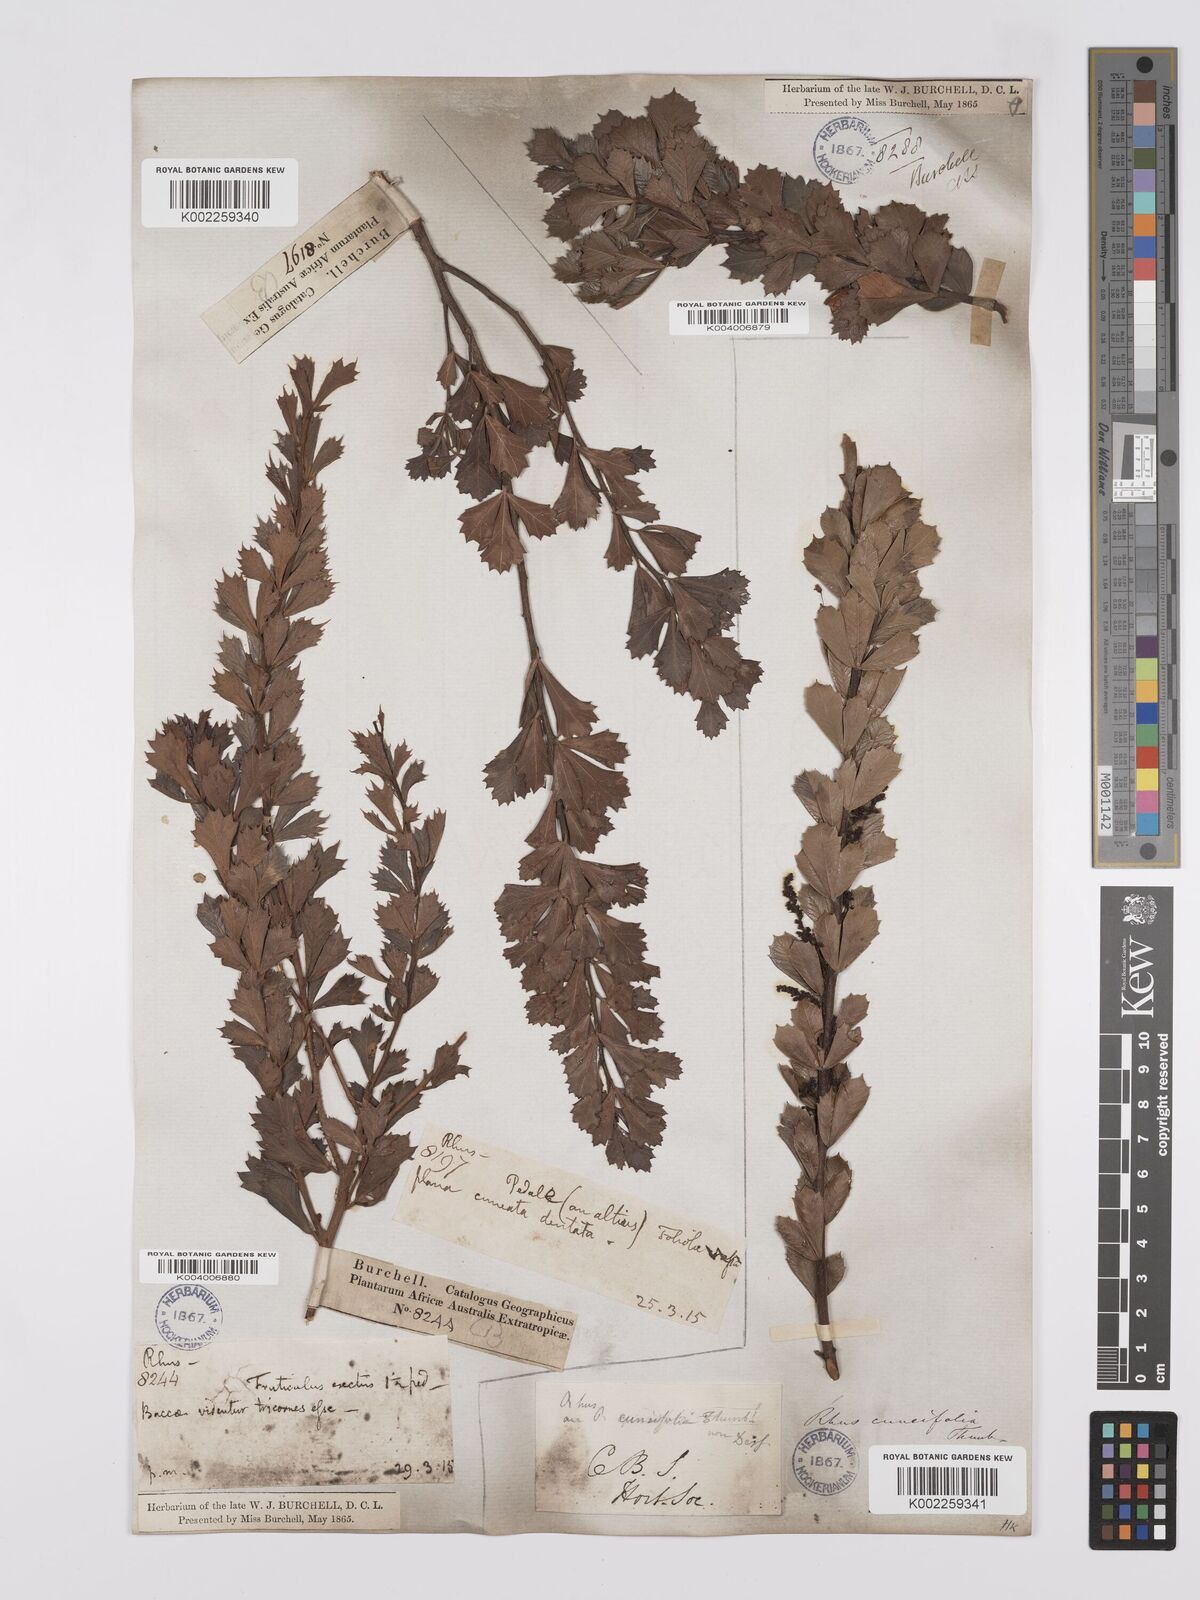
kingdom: Plantae
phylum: Tracheophyta
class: Magnoliopsida
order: Sapindales
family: Anacardiaceae
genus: Searsia
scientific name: Searsia cuneifolia
